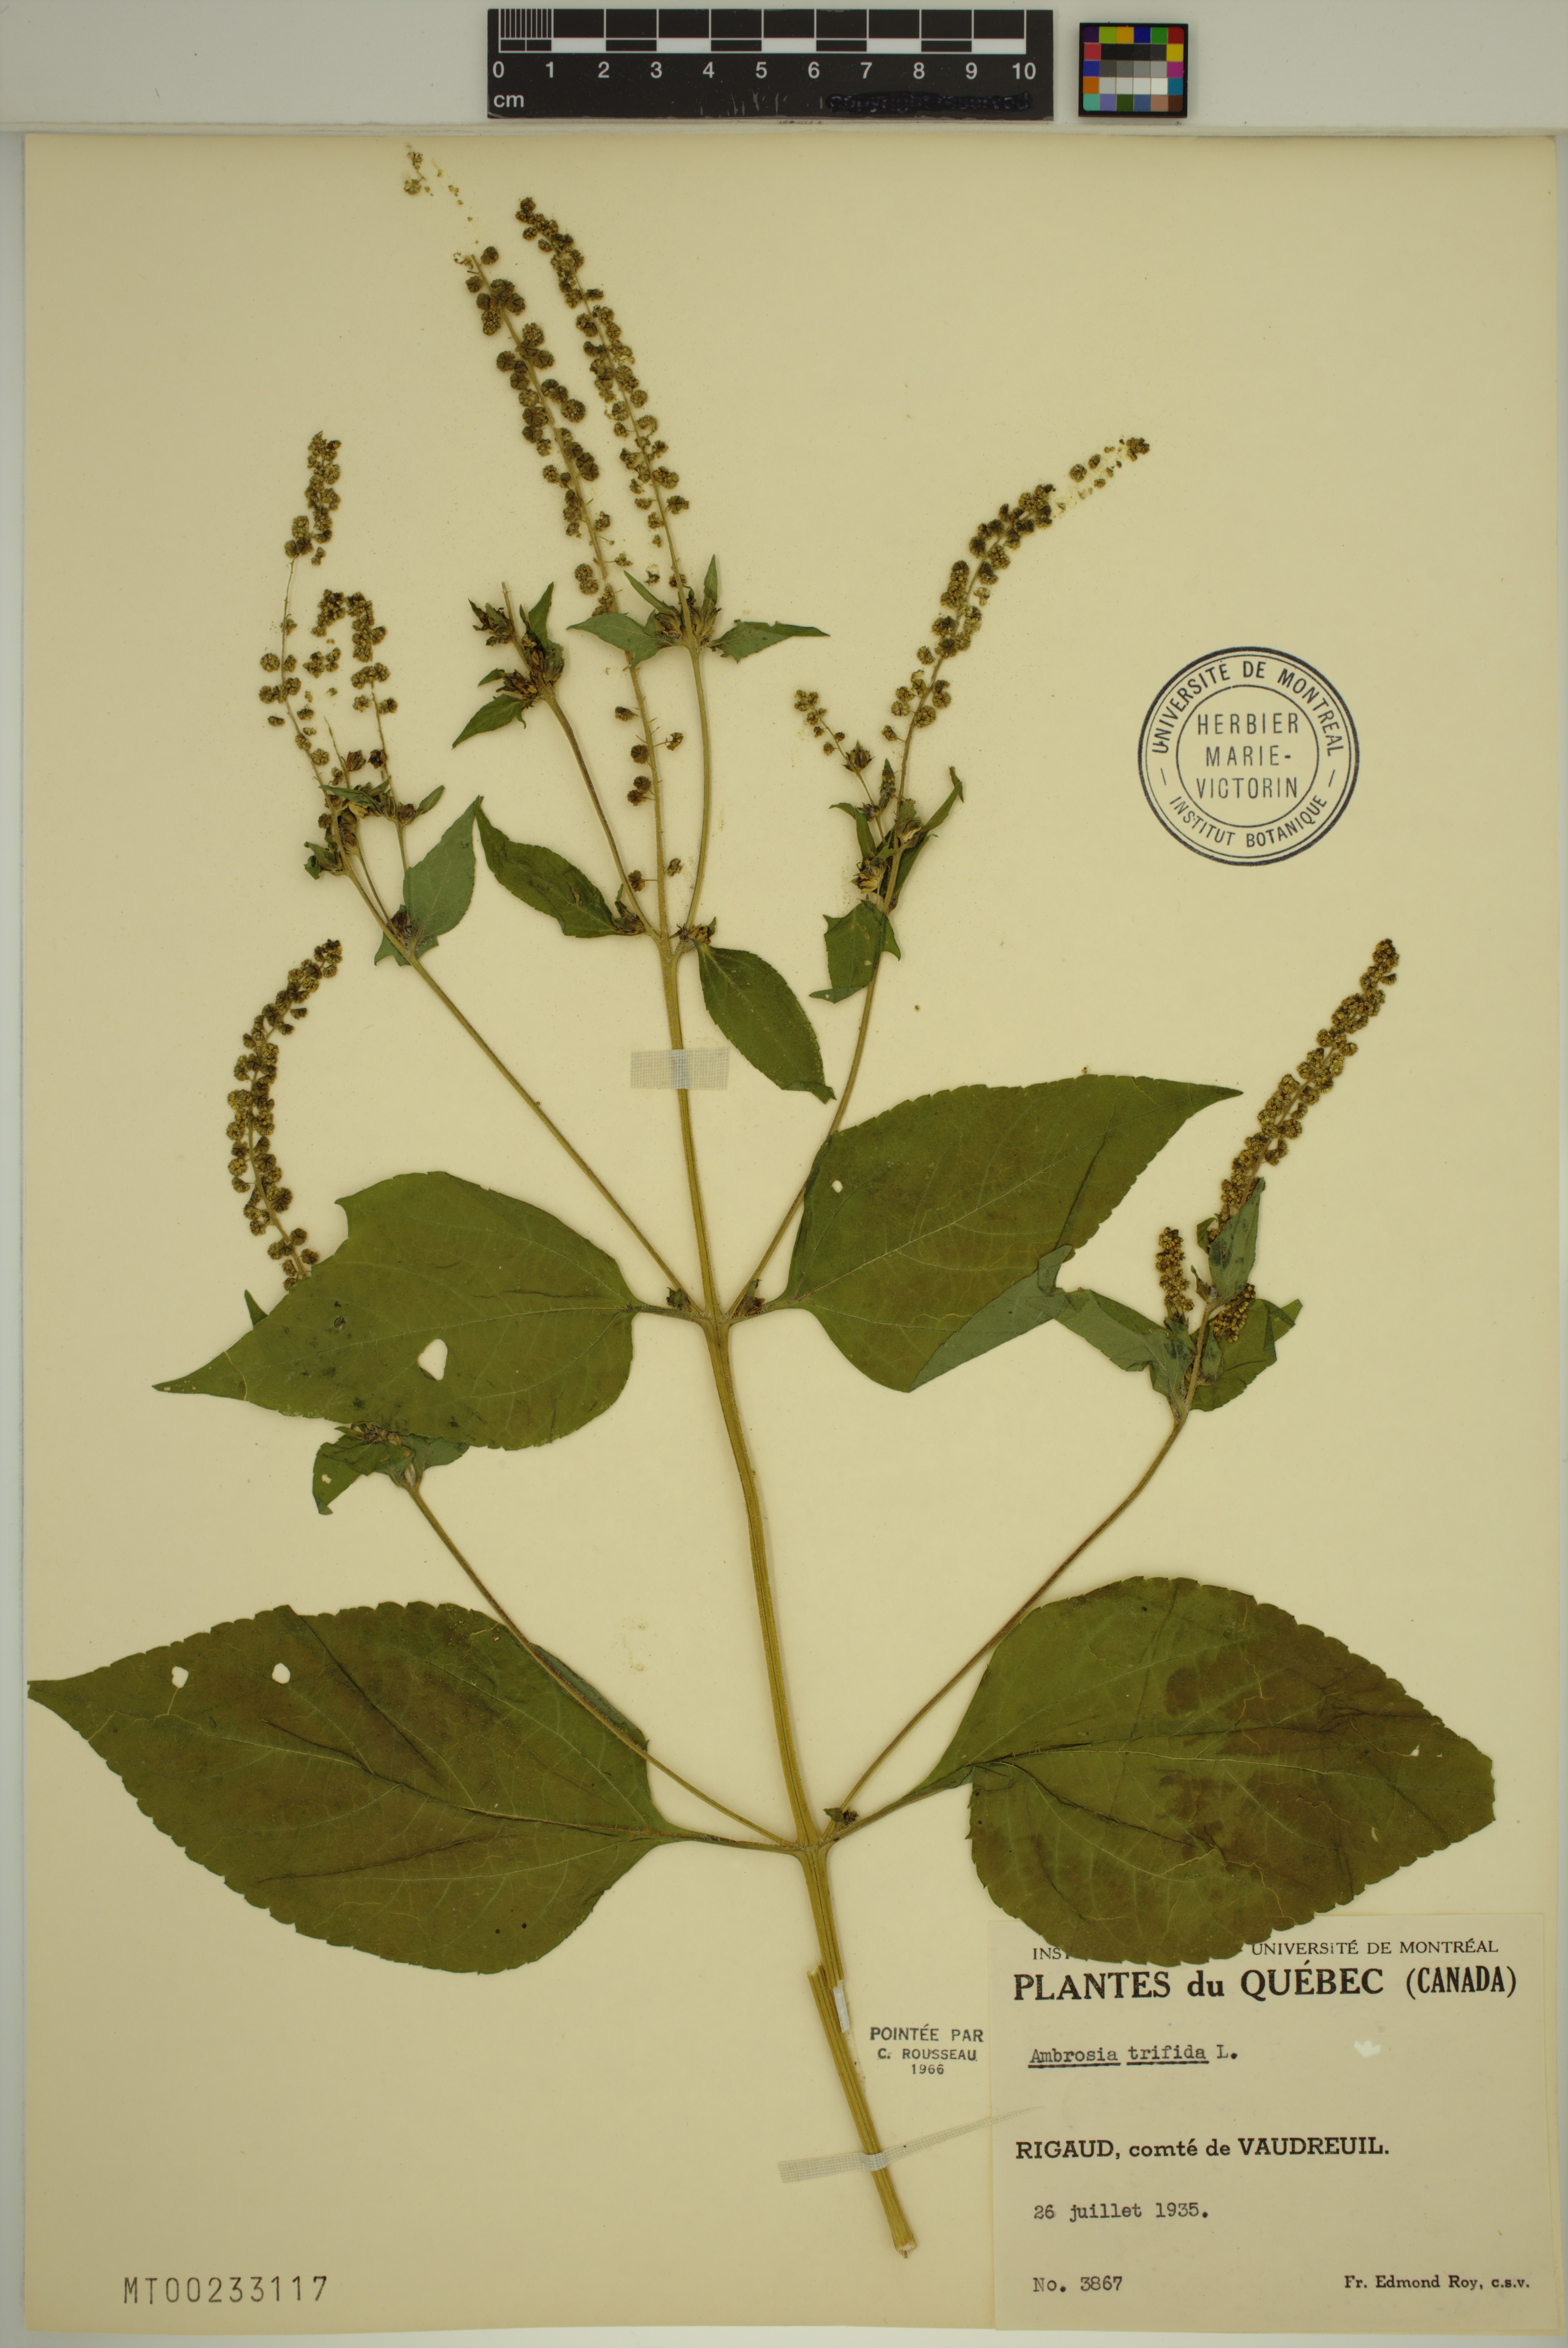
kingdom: Plantae
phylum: Tracheophyta
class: Magnoliopsida
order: Asterales
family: Asteraceae
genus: Ambrosia
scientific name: Ambrosia trifida
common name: Giant ragweed
